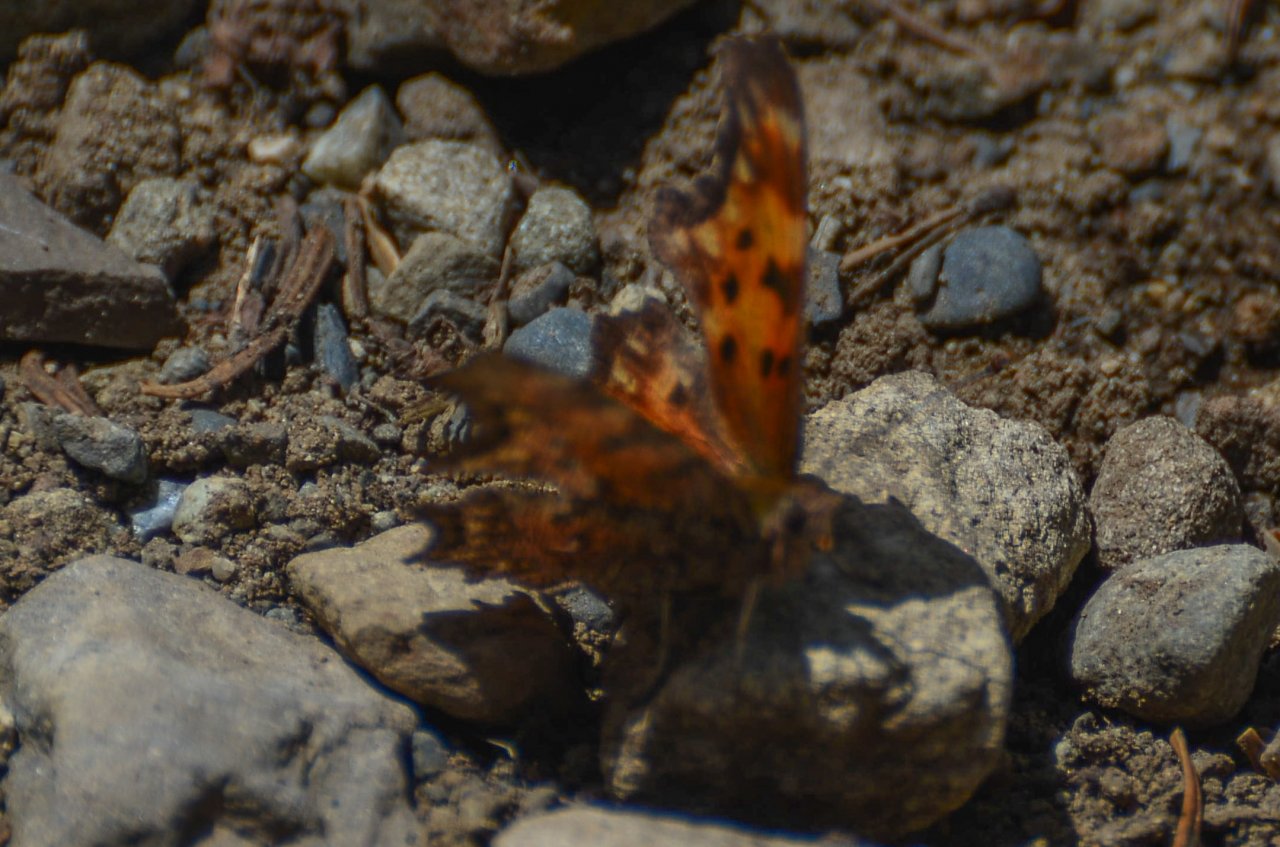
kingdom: Animalia
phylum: Arthropoda
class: Insecta
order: Lepidoptera
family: Nymphalidae
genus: Polygonia
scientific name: Polygonia gracilis
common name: Hoary Comma
